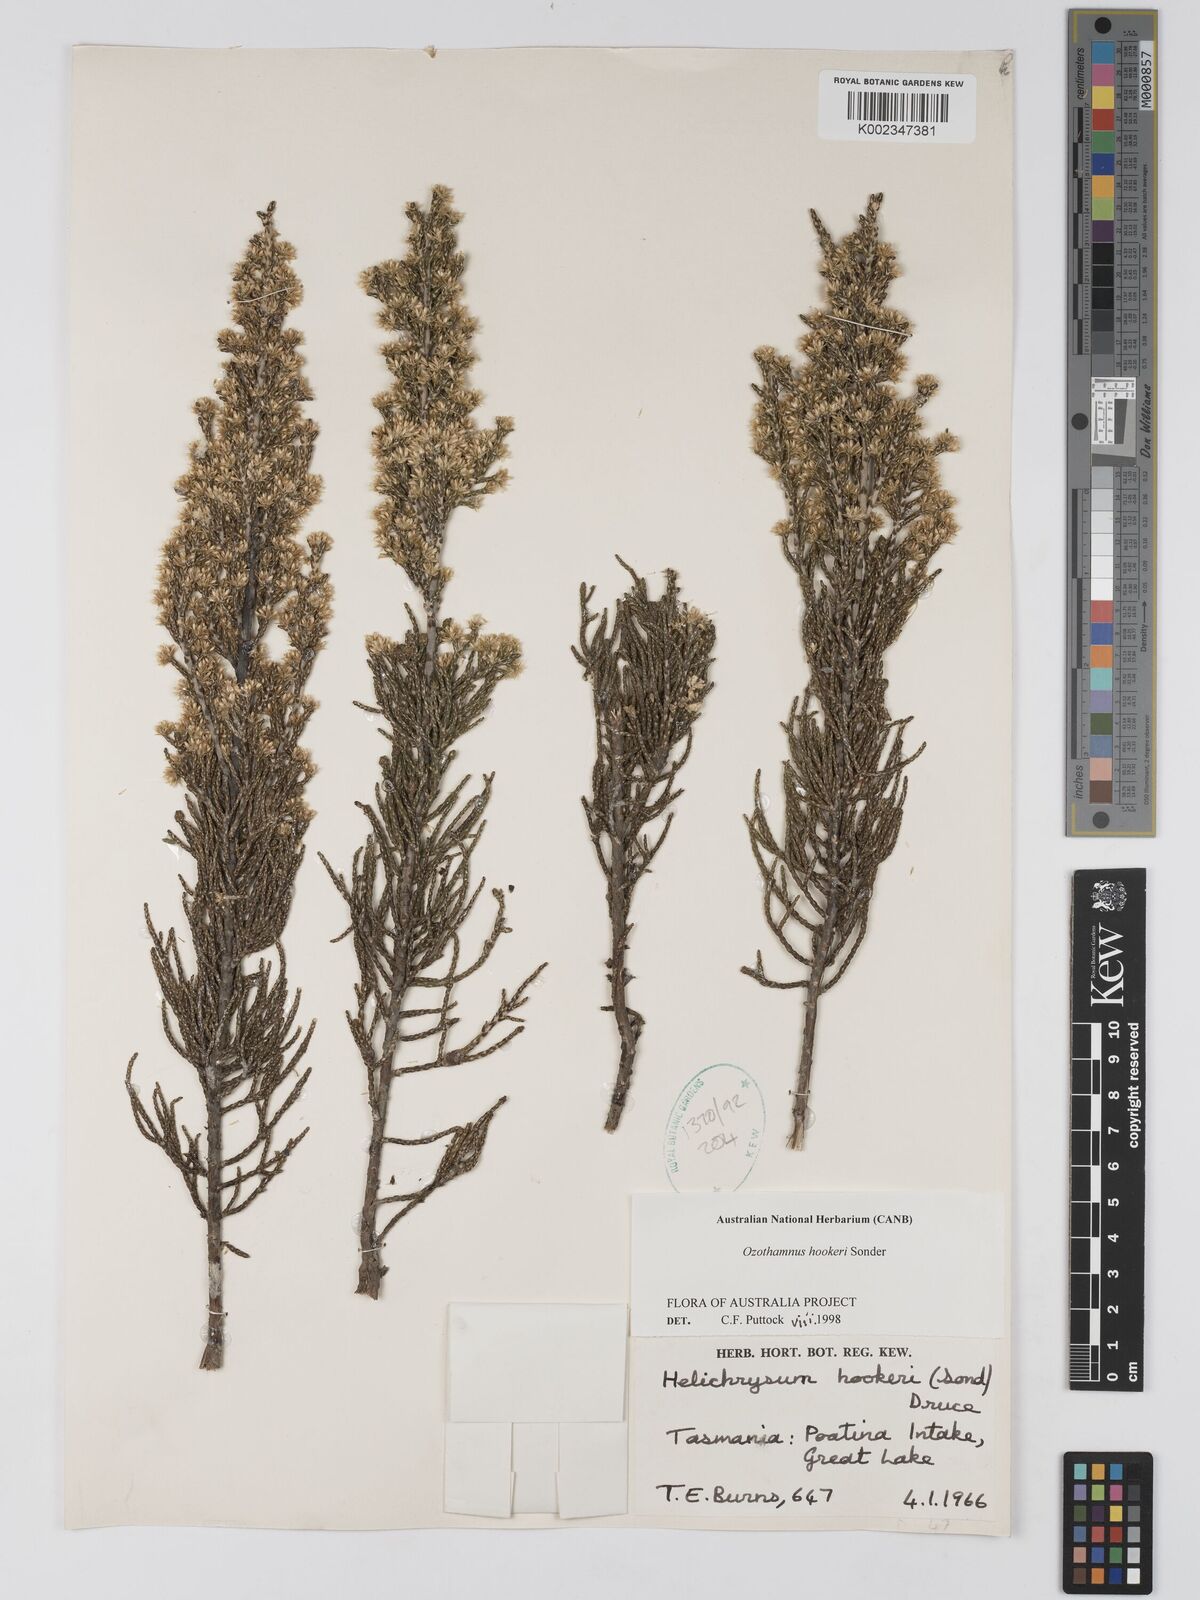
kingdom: Plantae
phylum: Tracheophyta
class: Magnoliopsida
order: Asterales
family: Asteraceae
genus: Ozothamnus
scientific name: Ozothamnus hookeri
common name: Kerosene-bush
